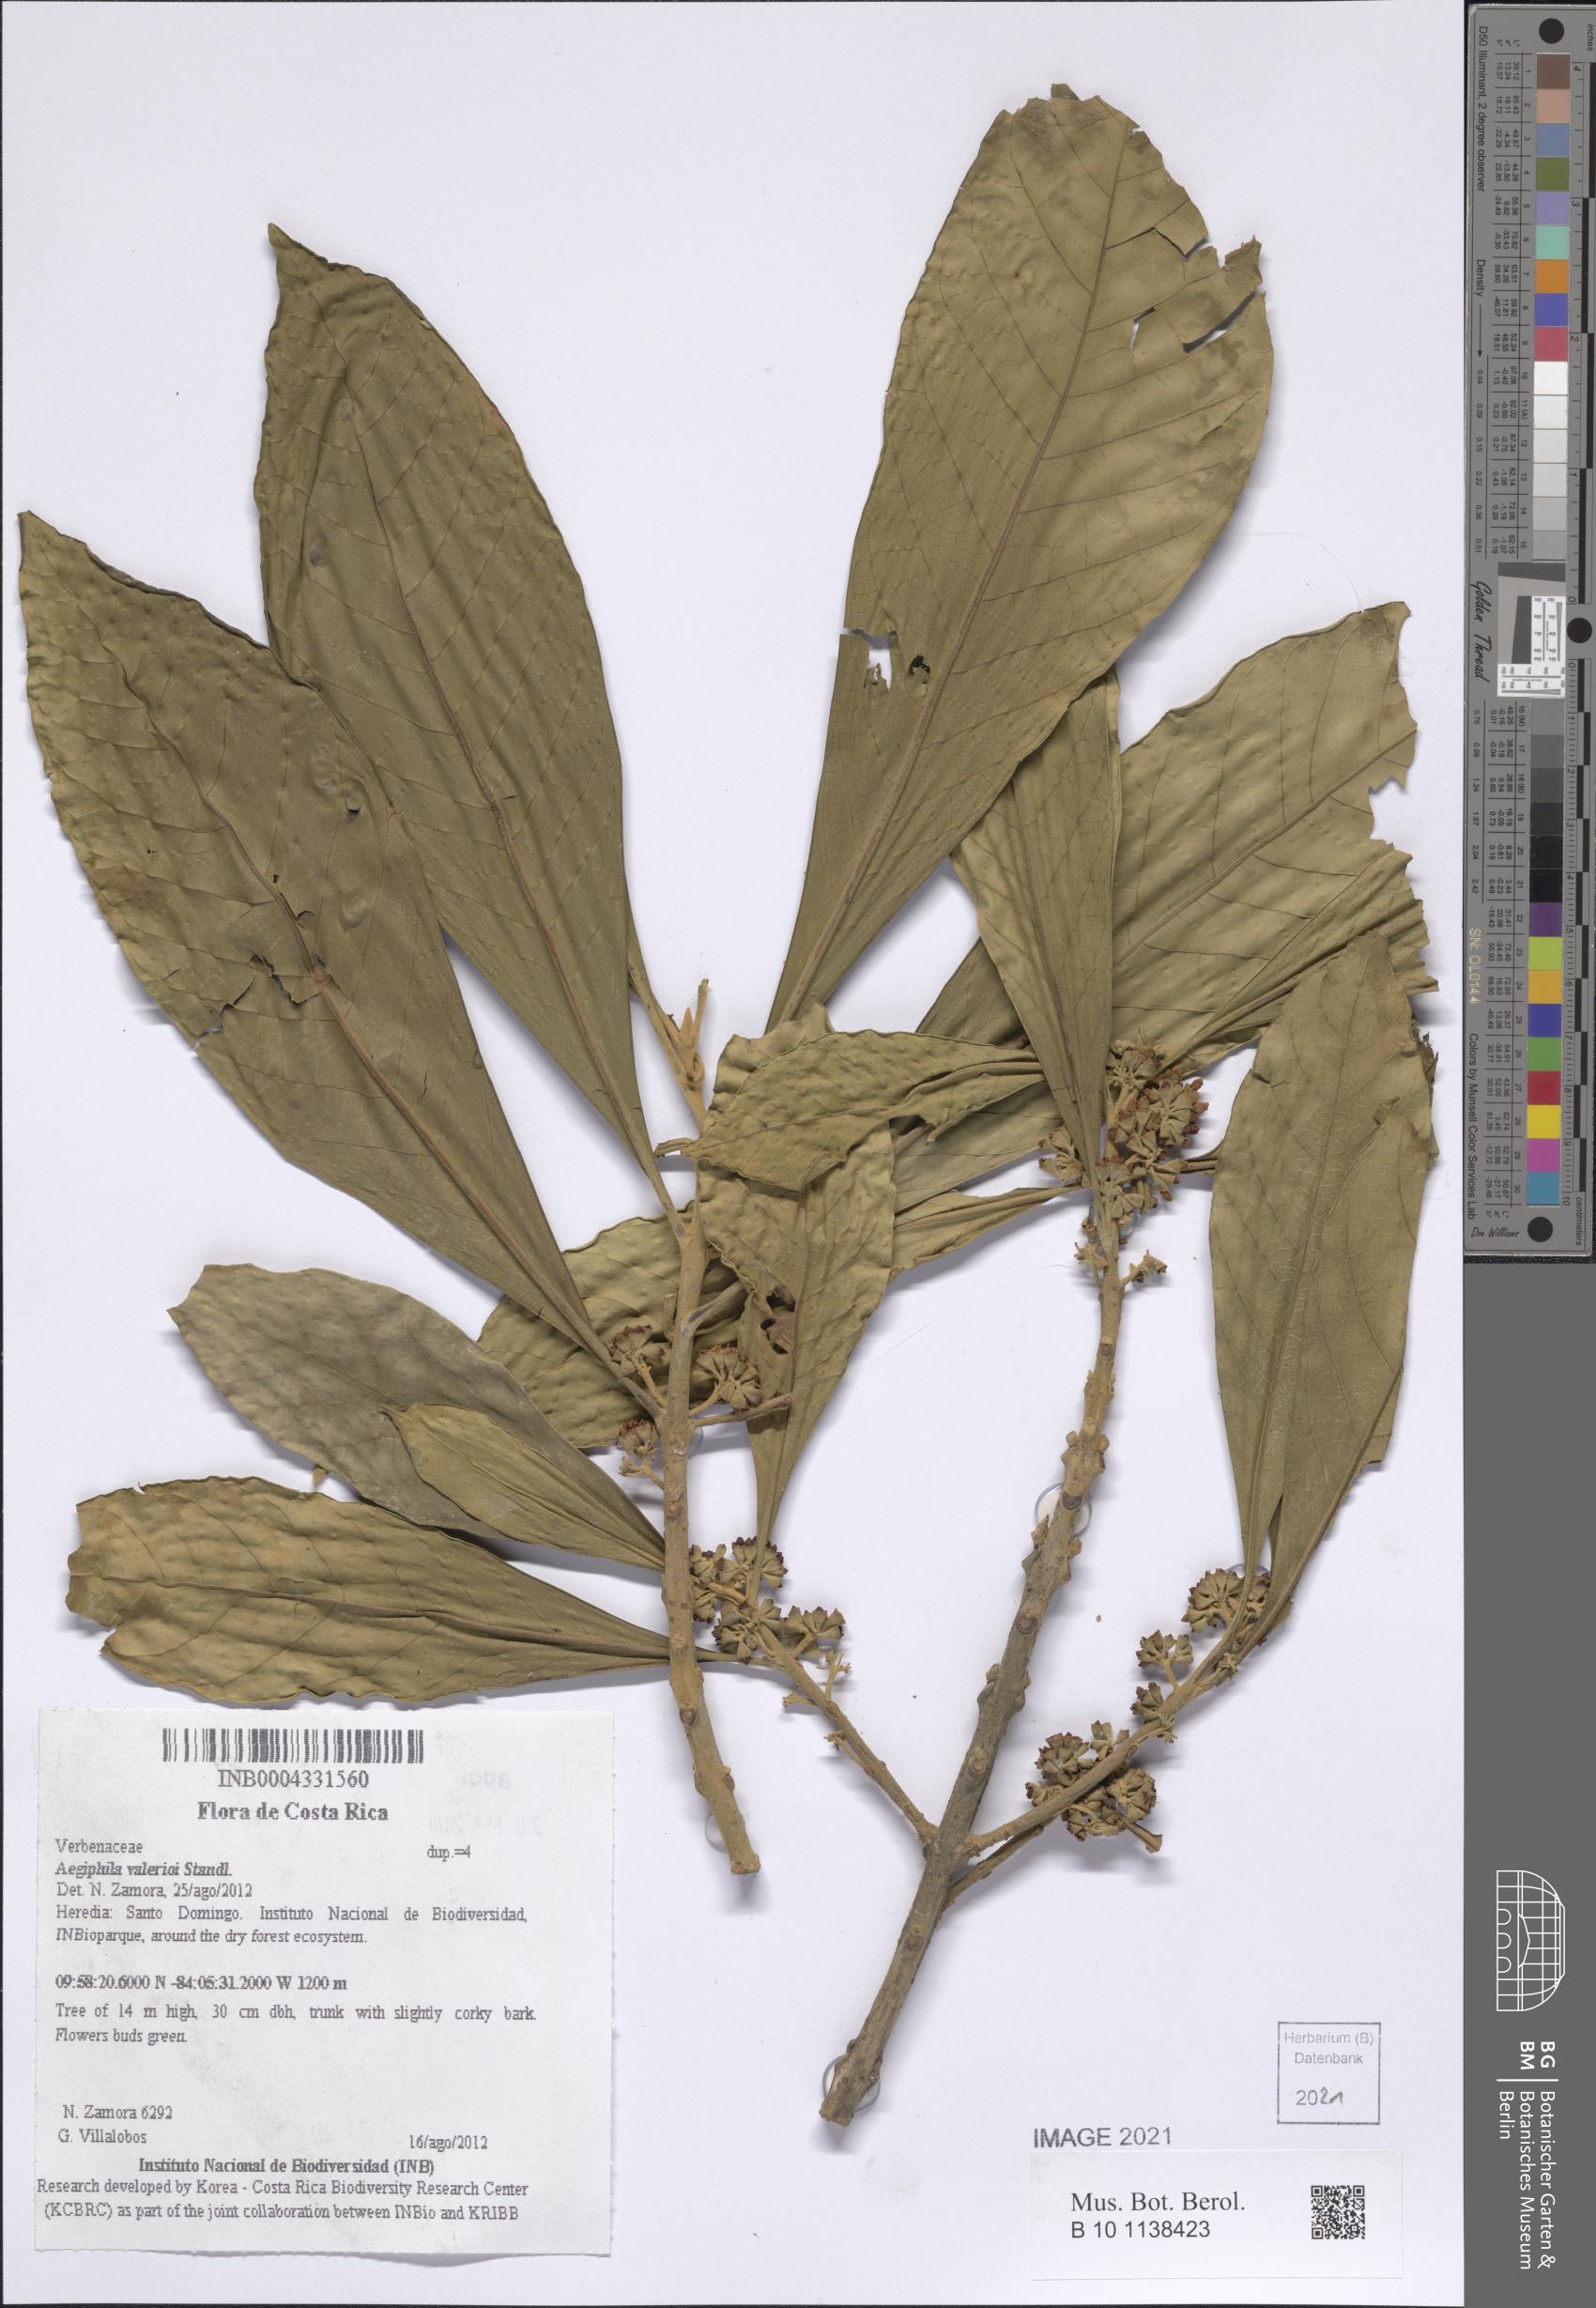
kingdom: Plantae
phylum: Tracheophyta
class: Magnoliopsida
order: Lamiales
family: Lamiaceae
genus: Aegiphila
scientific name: Aegiphila valerioi
